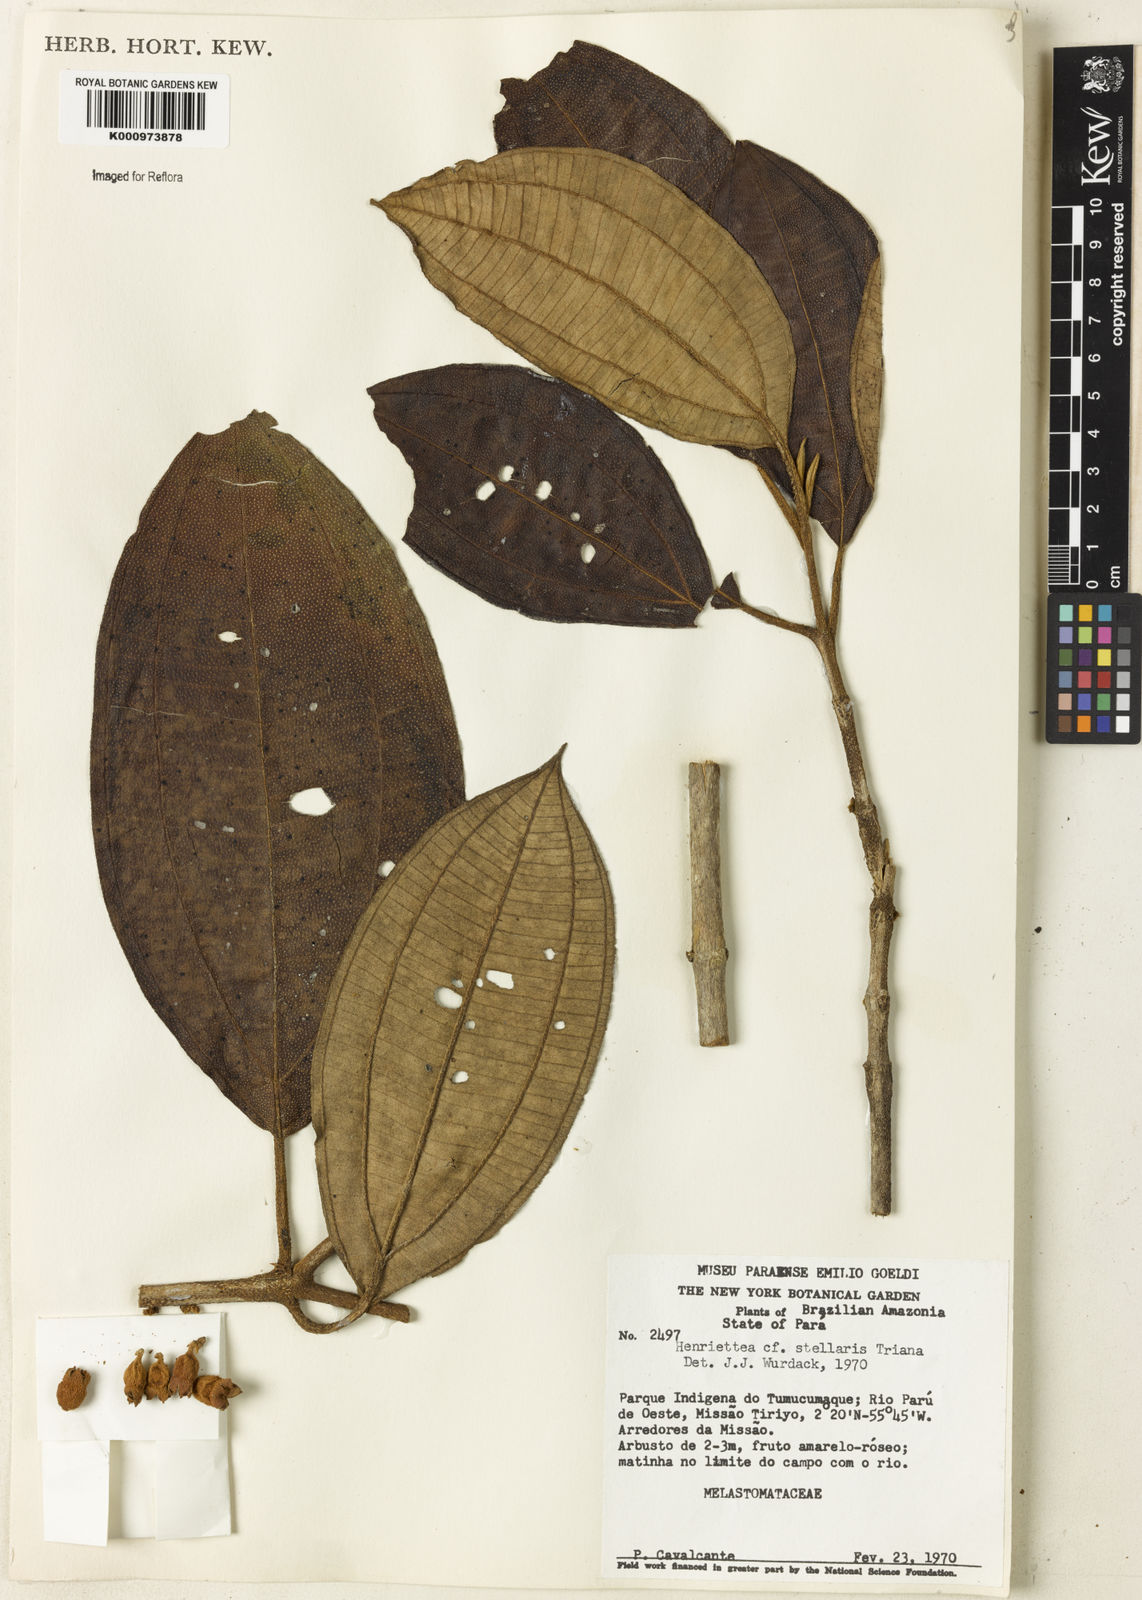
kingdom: Plantae
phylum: Tracheophyta
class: Magnoliopsida
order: Myrtales
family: Melastomataceae
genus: Henriettea
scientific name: Henriettea stellaris
